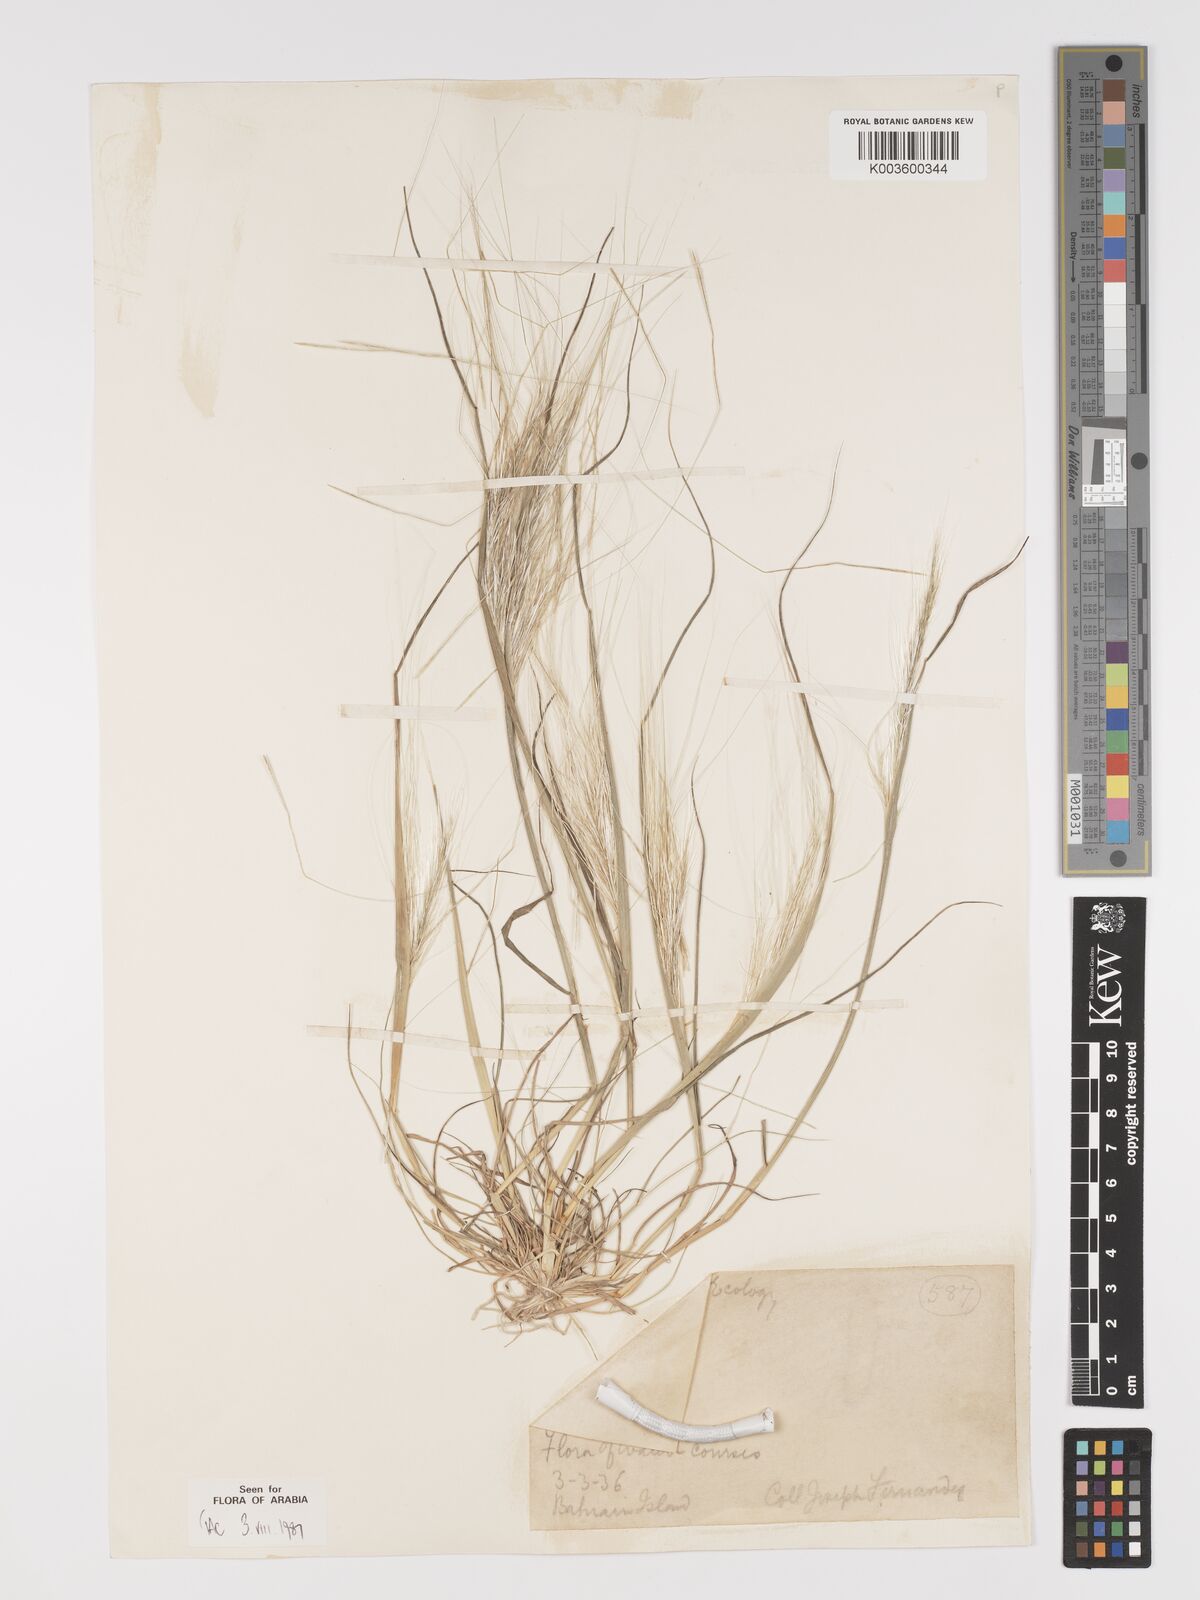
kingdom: Plantae
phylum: Tracheophyta
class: Liliopsida
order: Poales
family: Poaceae
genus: Stipellula
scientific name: Stipellula capensis
